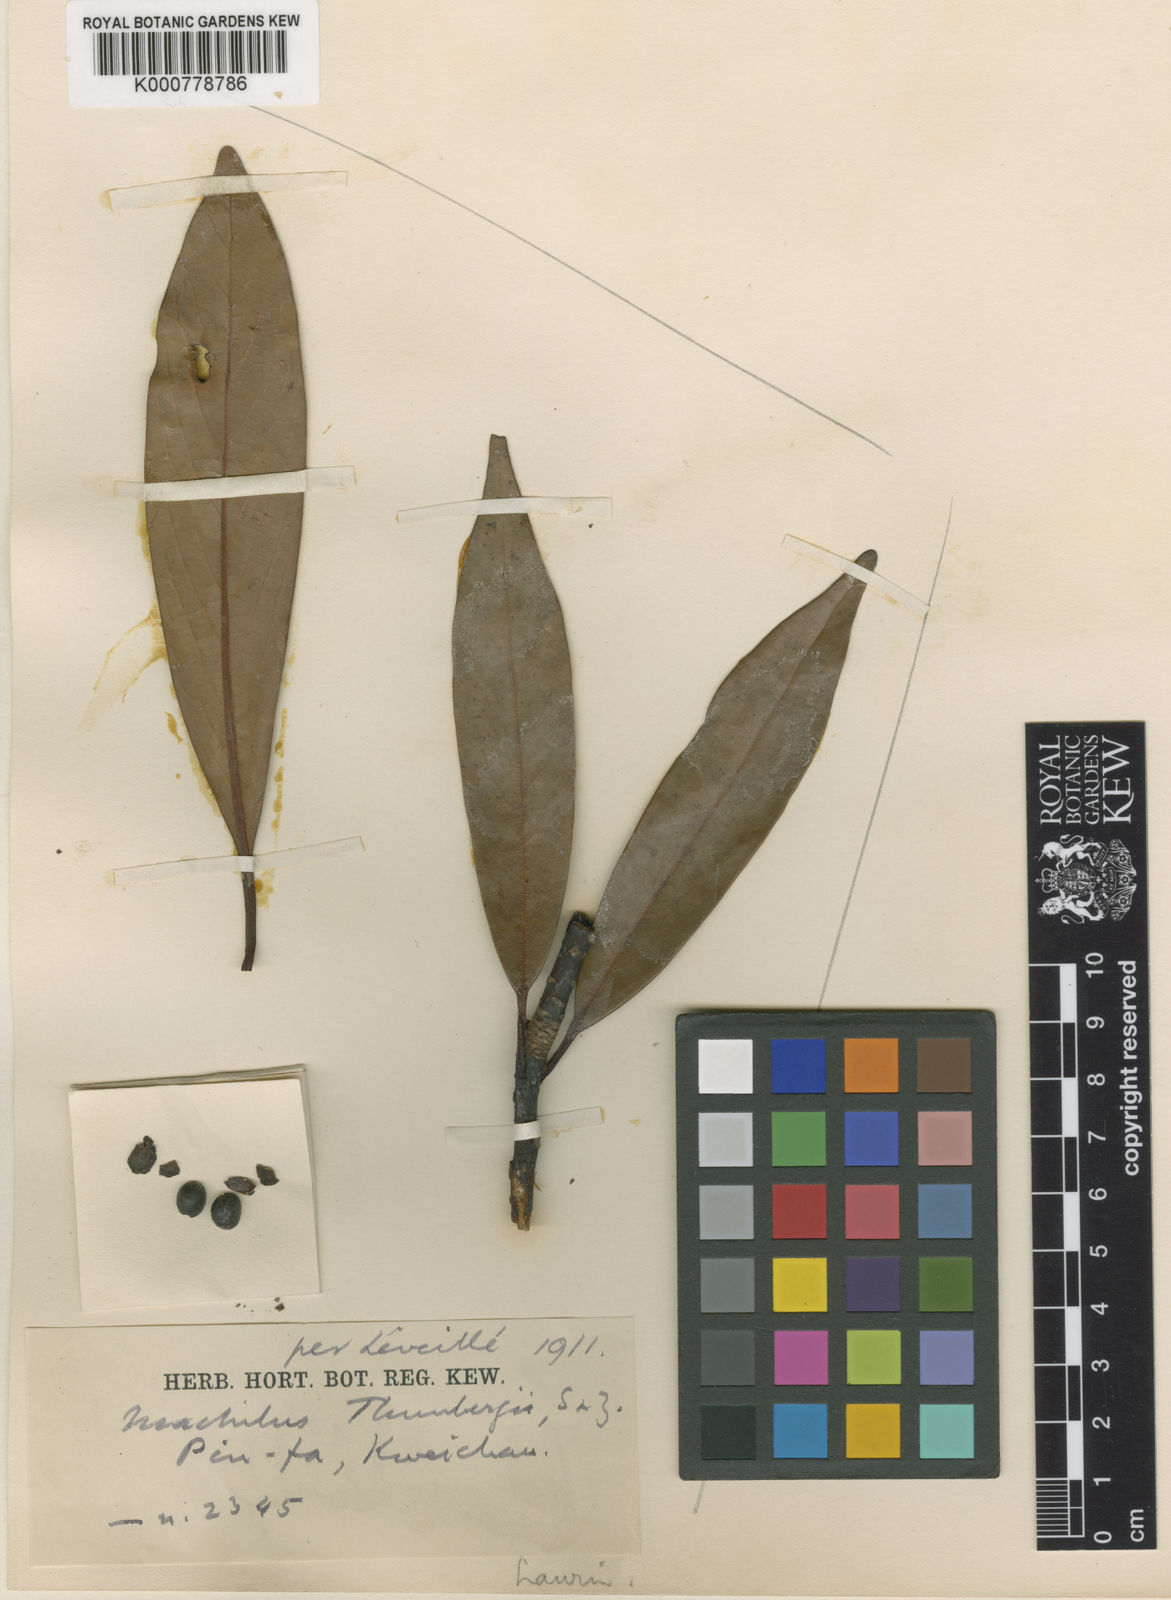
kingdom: Plantae
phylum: Tracheophyta
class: Magnoliopsida
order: Laurales
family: Lauraceae
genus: Machilus
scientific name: Machilus rehderi
